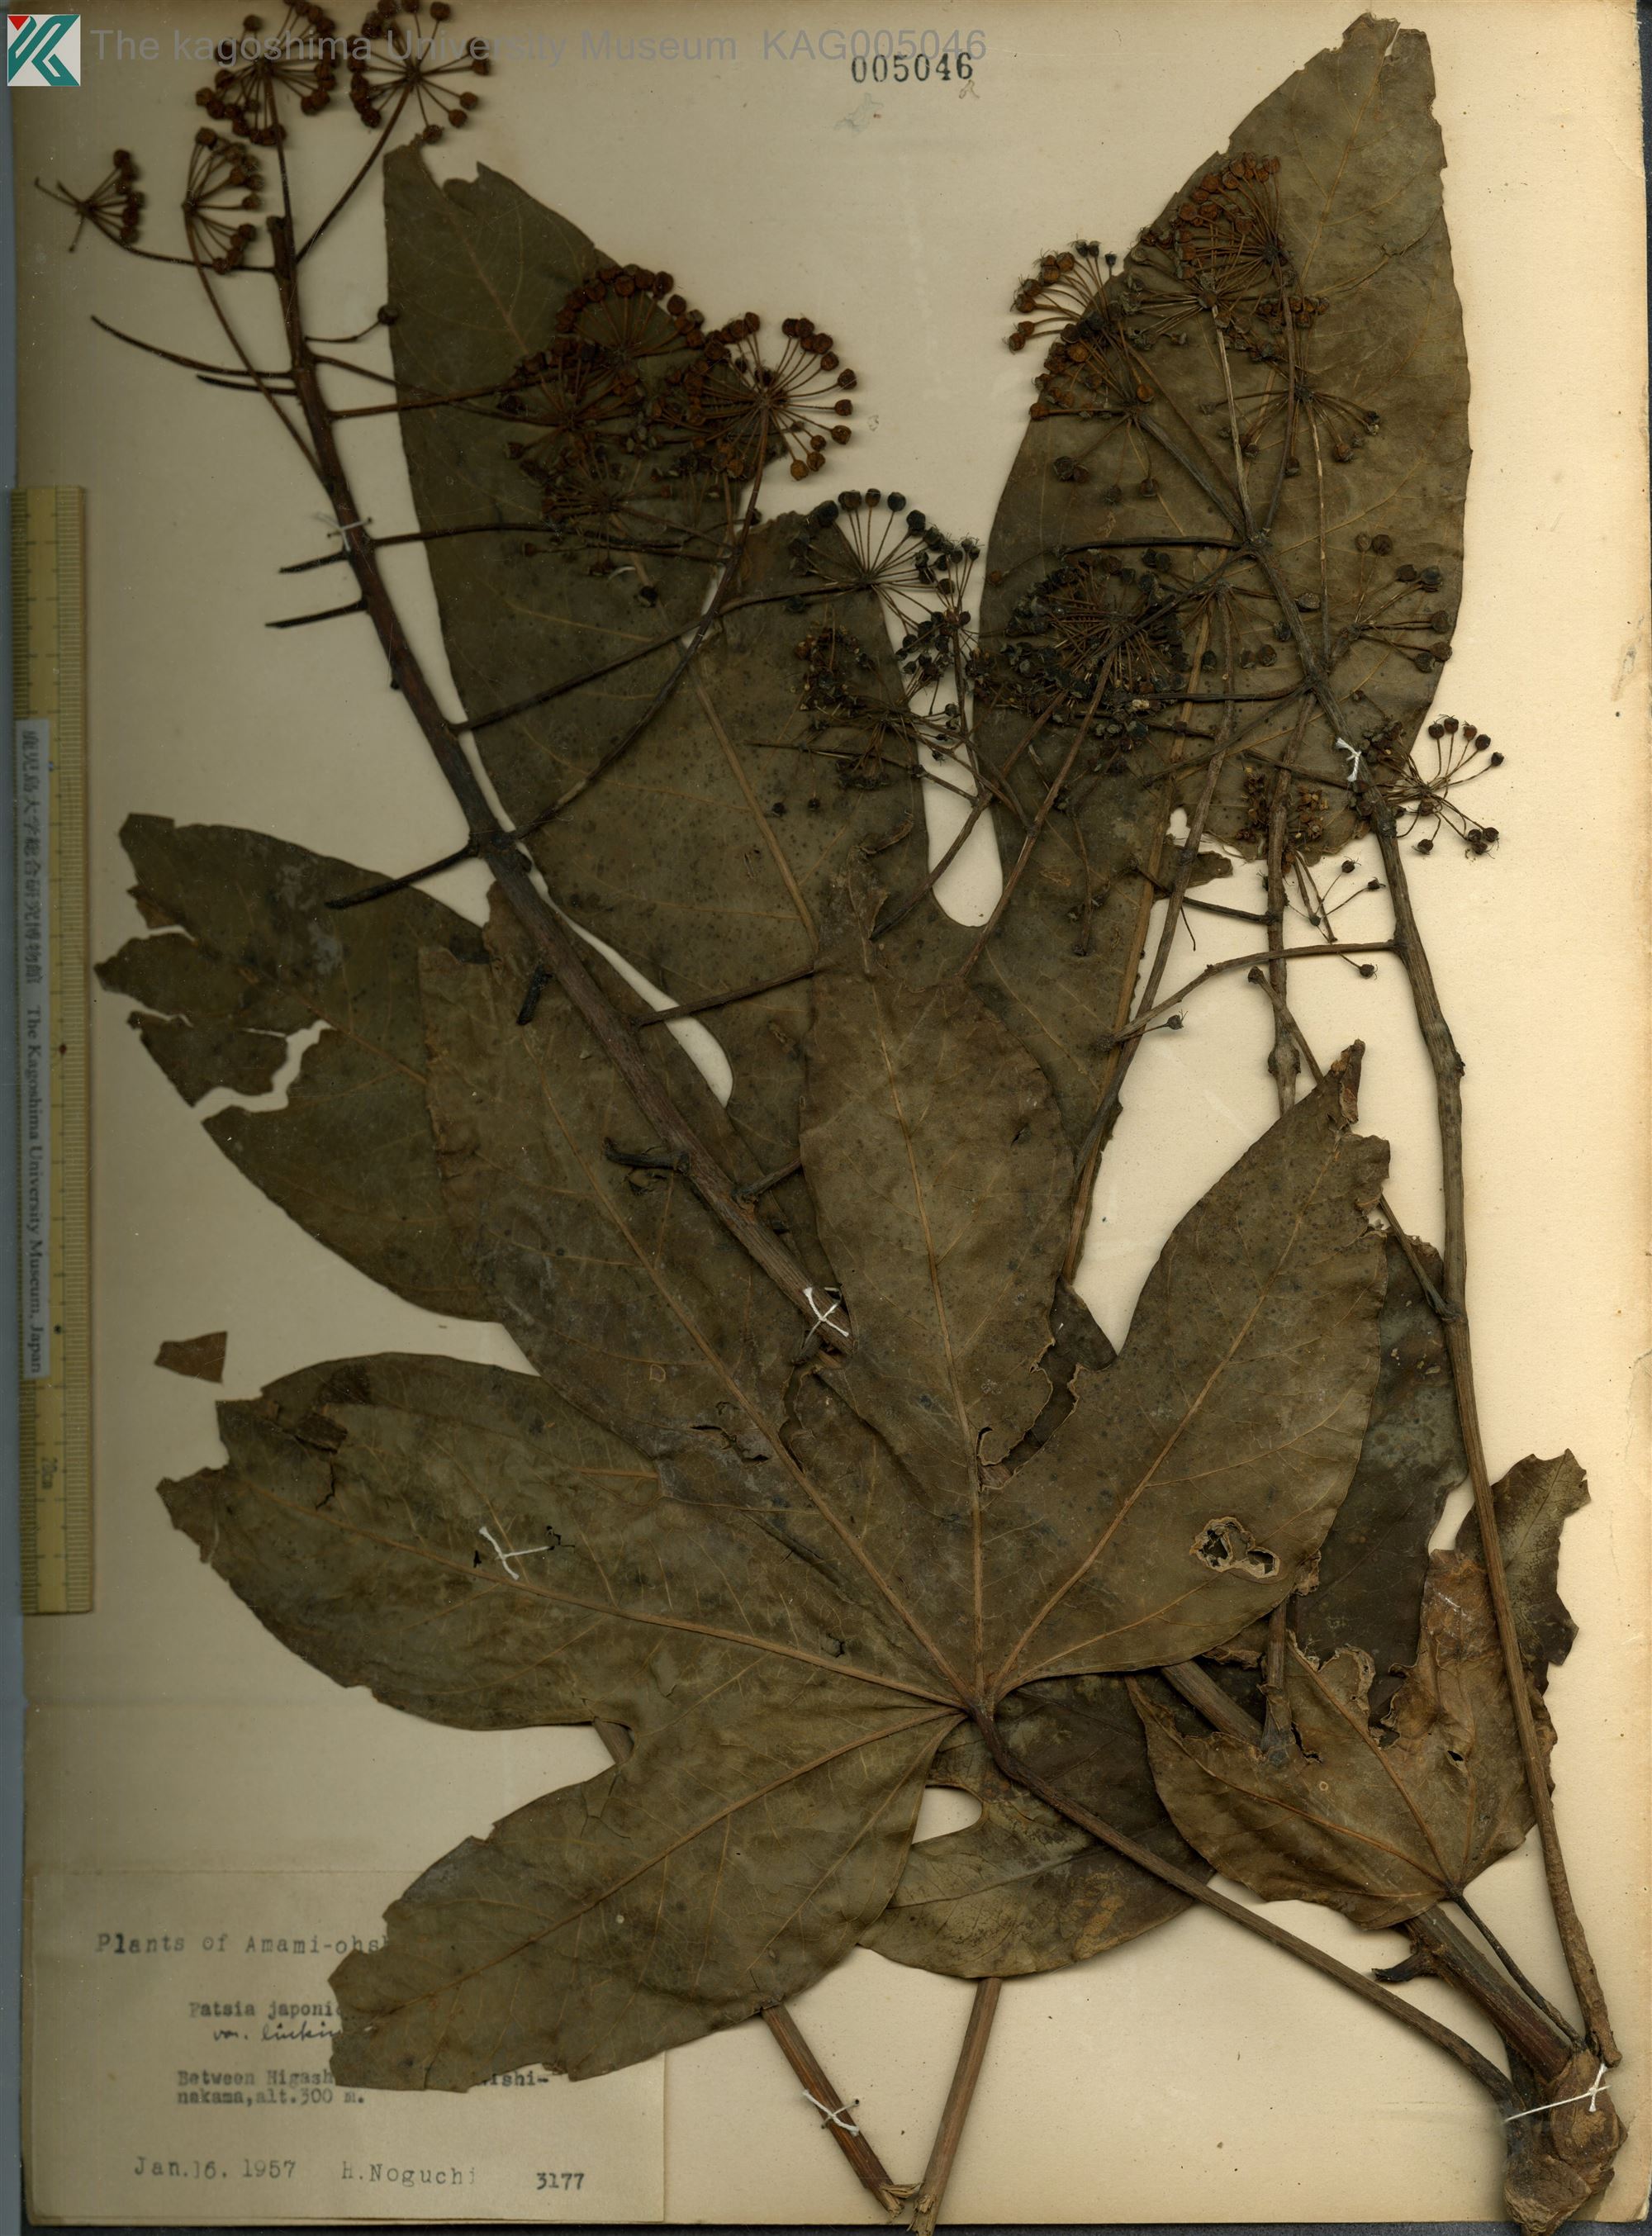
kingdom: Plantae
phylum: Tracheophyta
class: Magnoliopsida
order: Apiales
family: Araliaceae
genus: Fatsia
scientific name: Fatsia japonica
